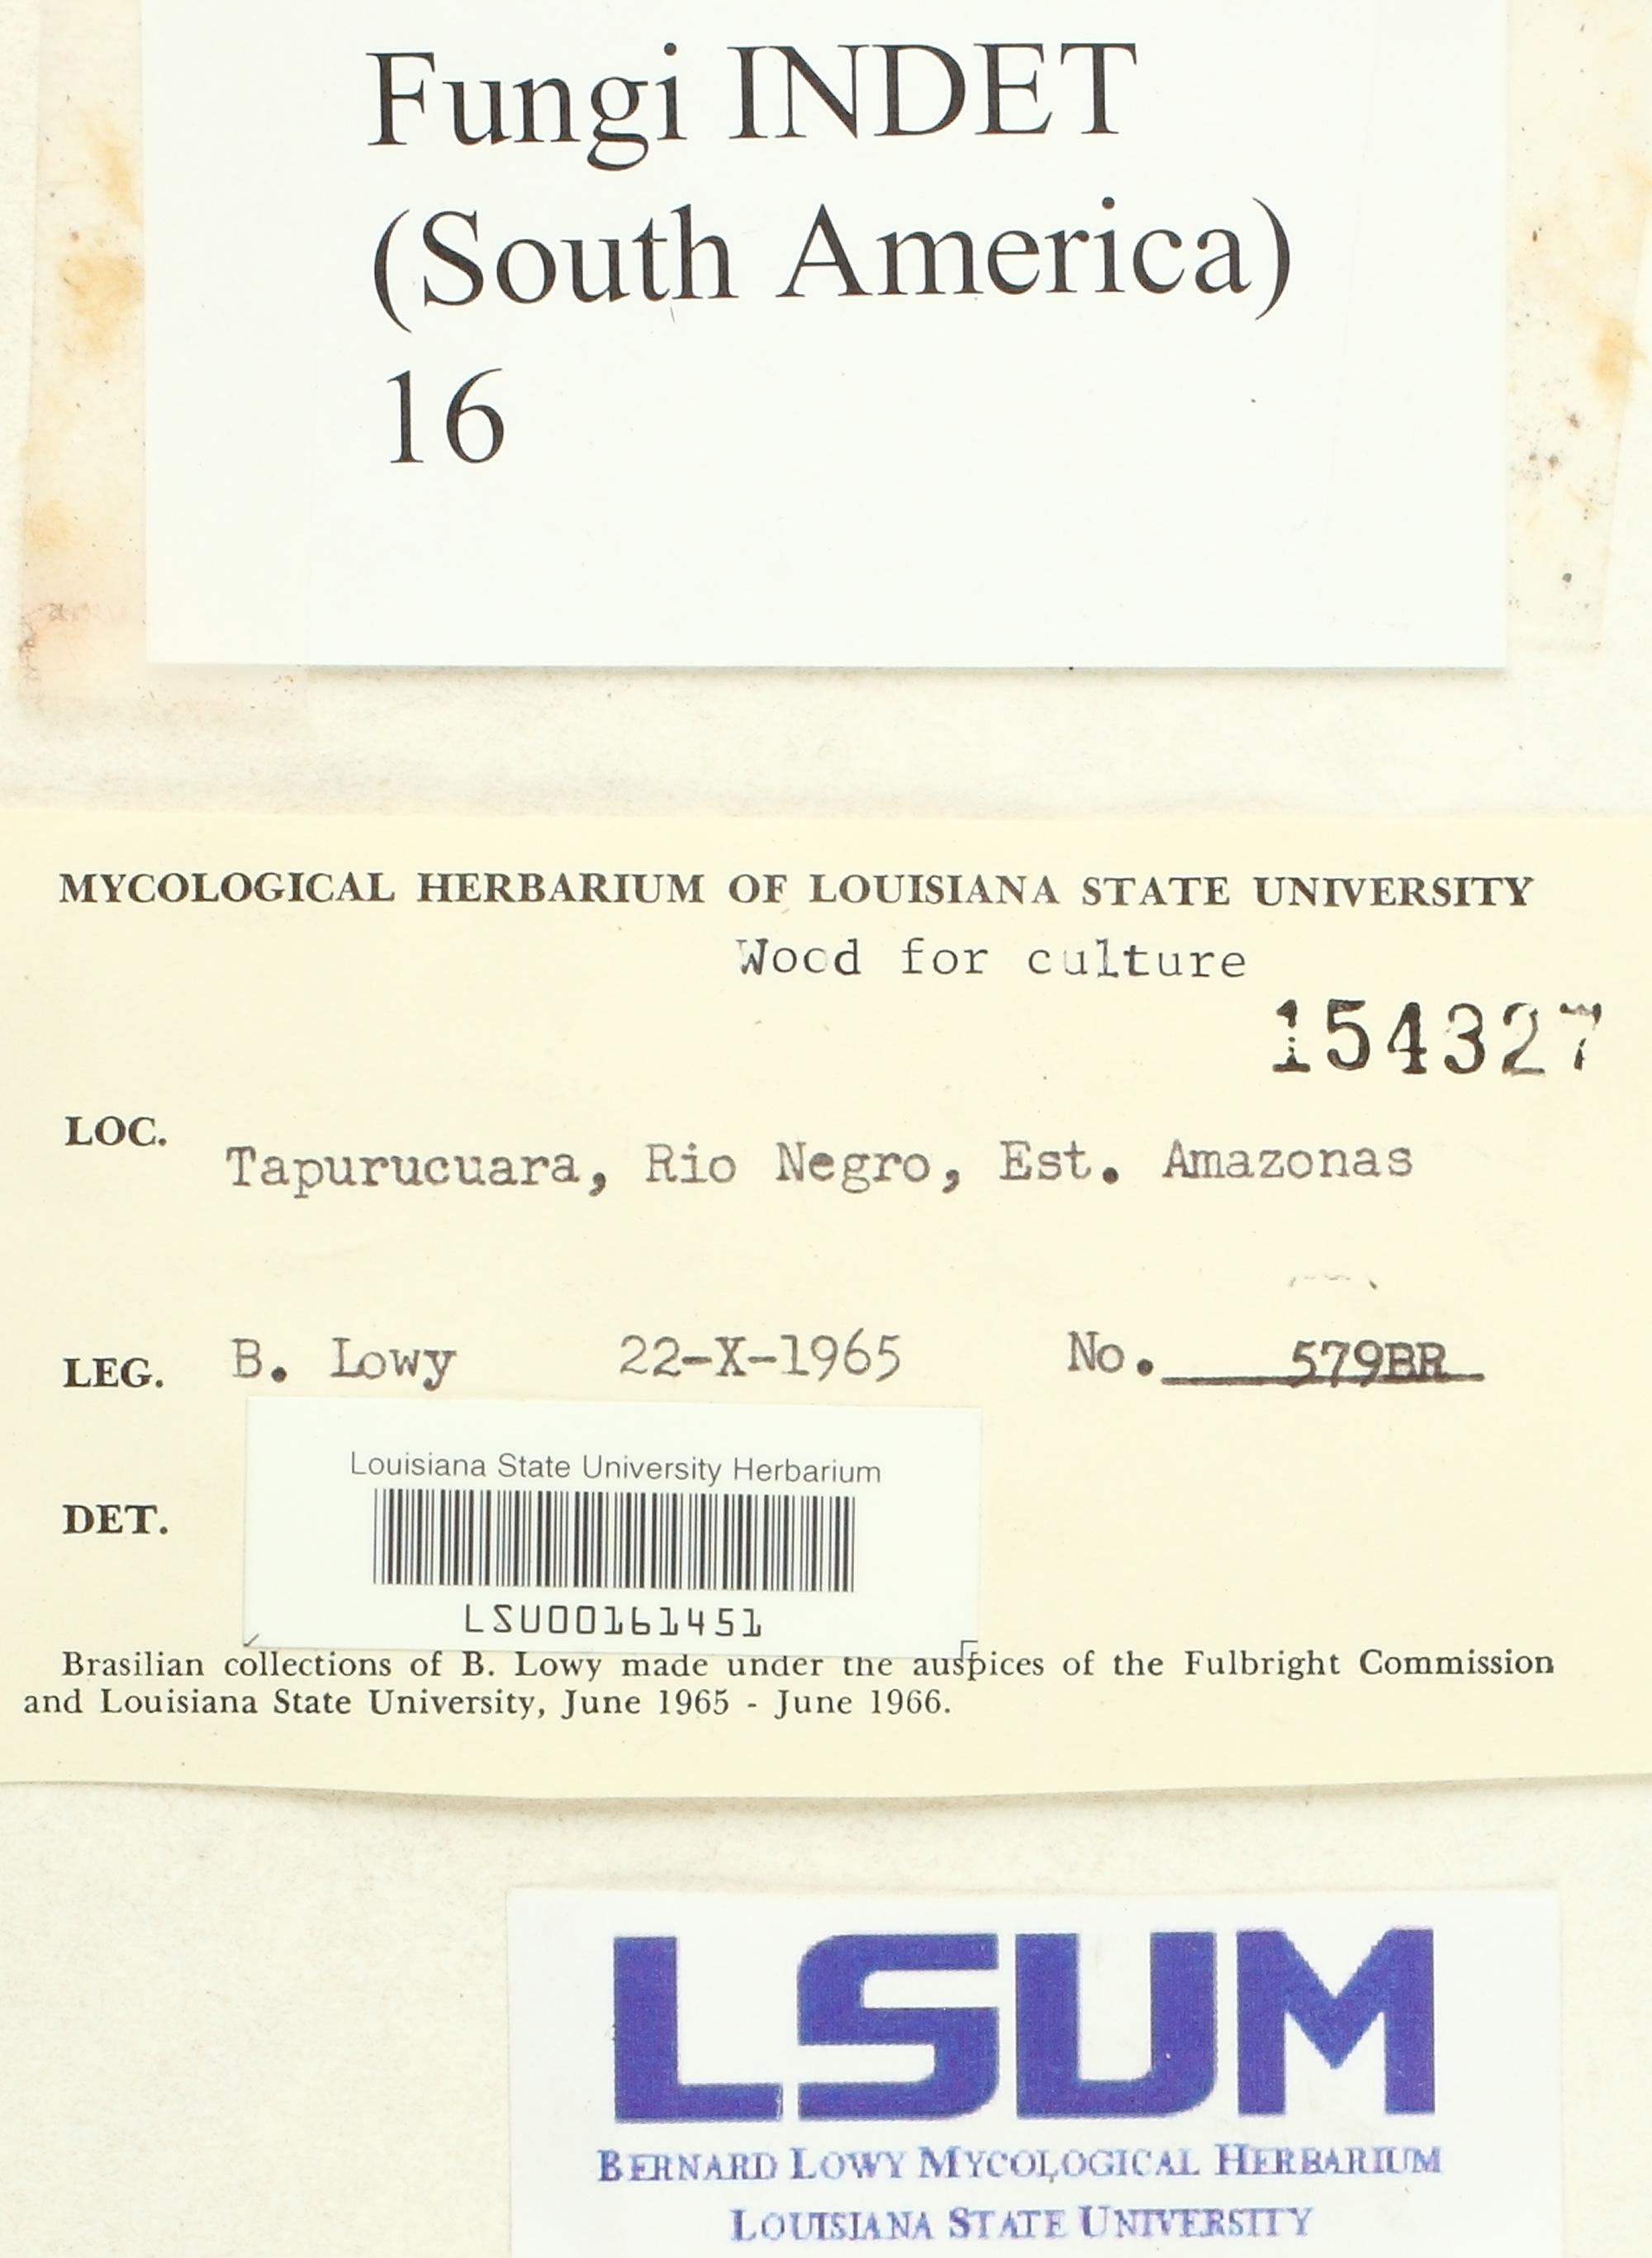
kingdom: Fungi
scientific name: Fungi
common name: Fungi
